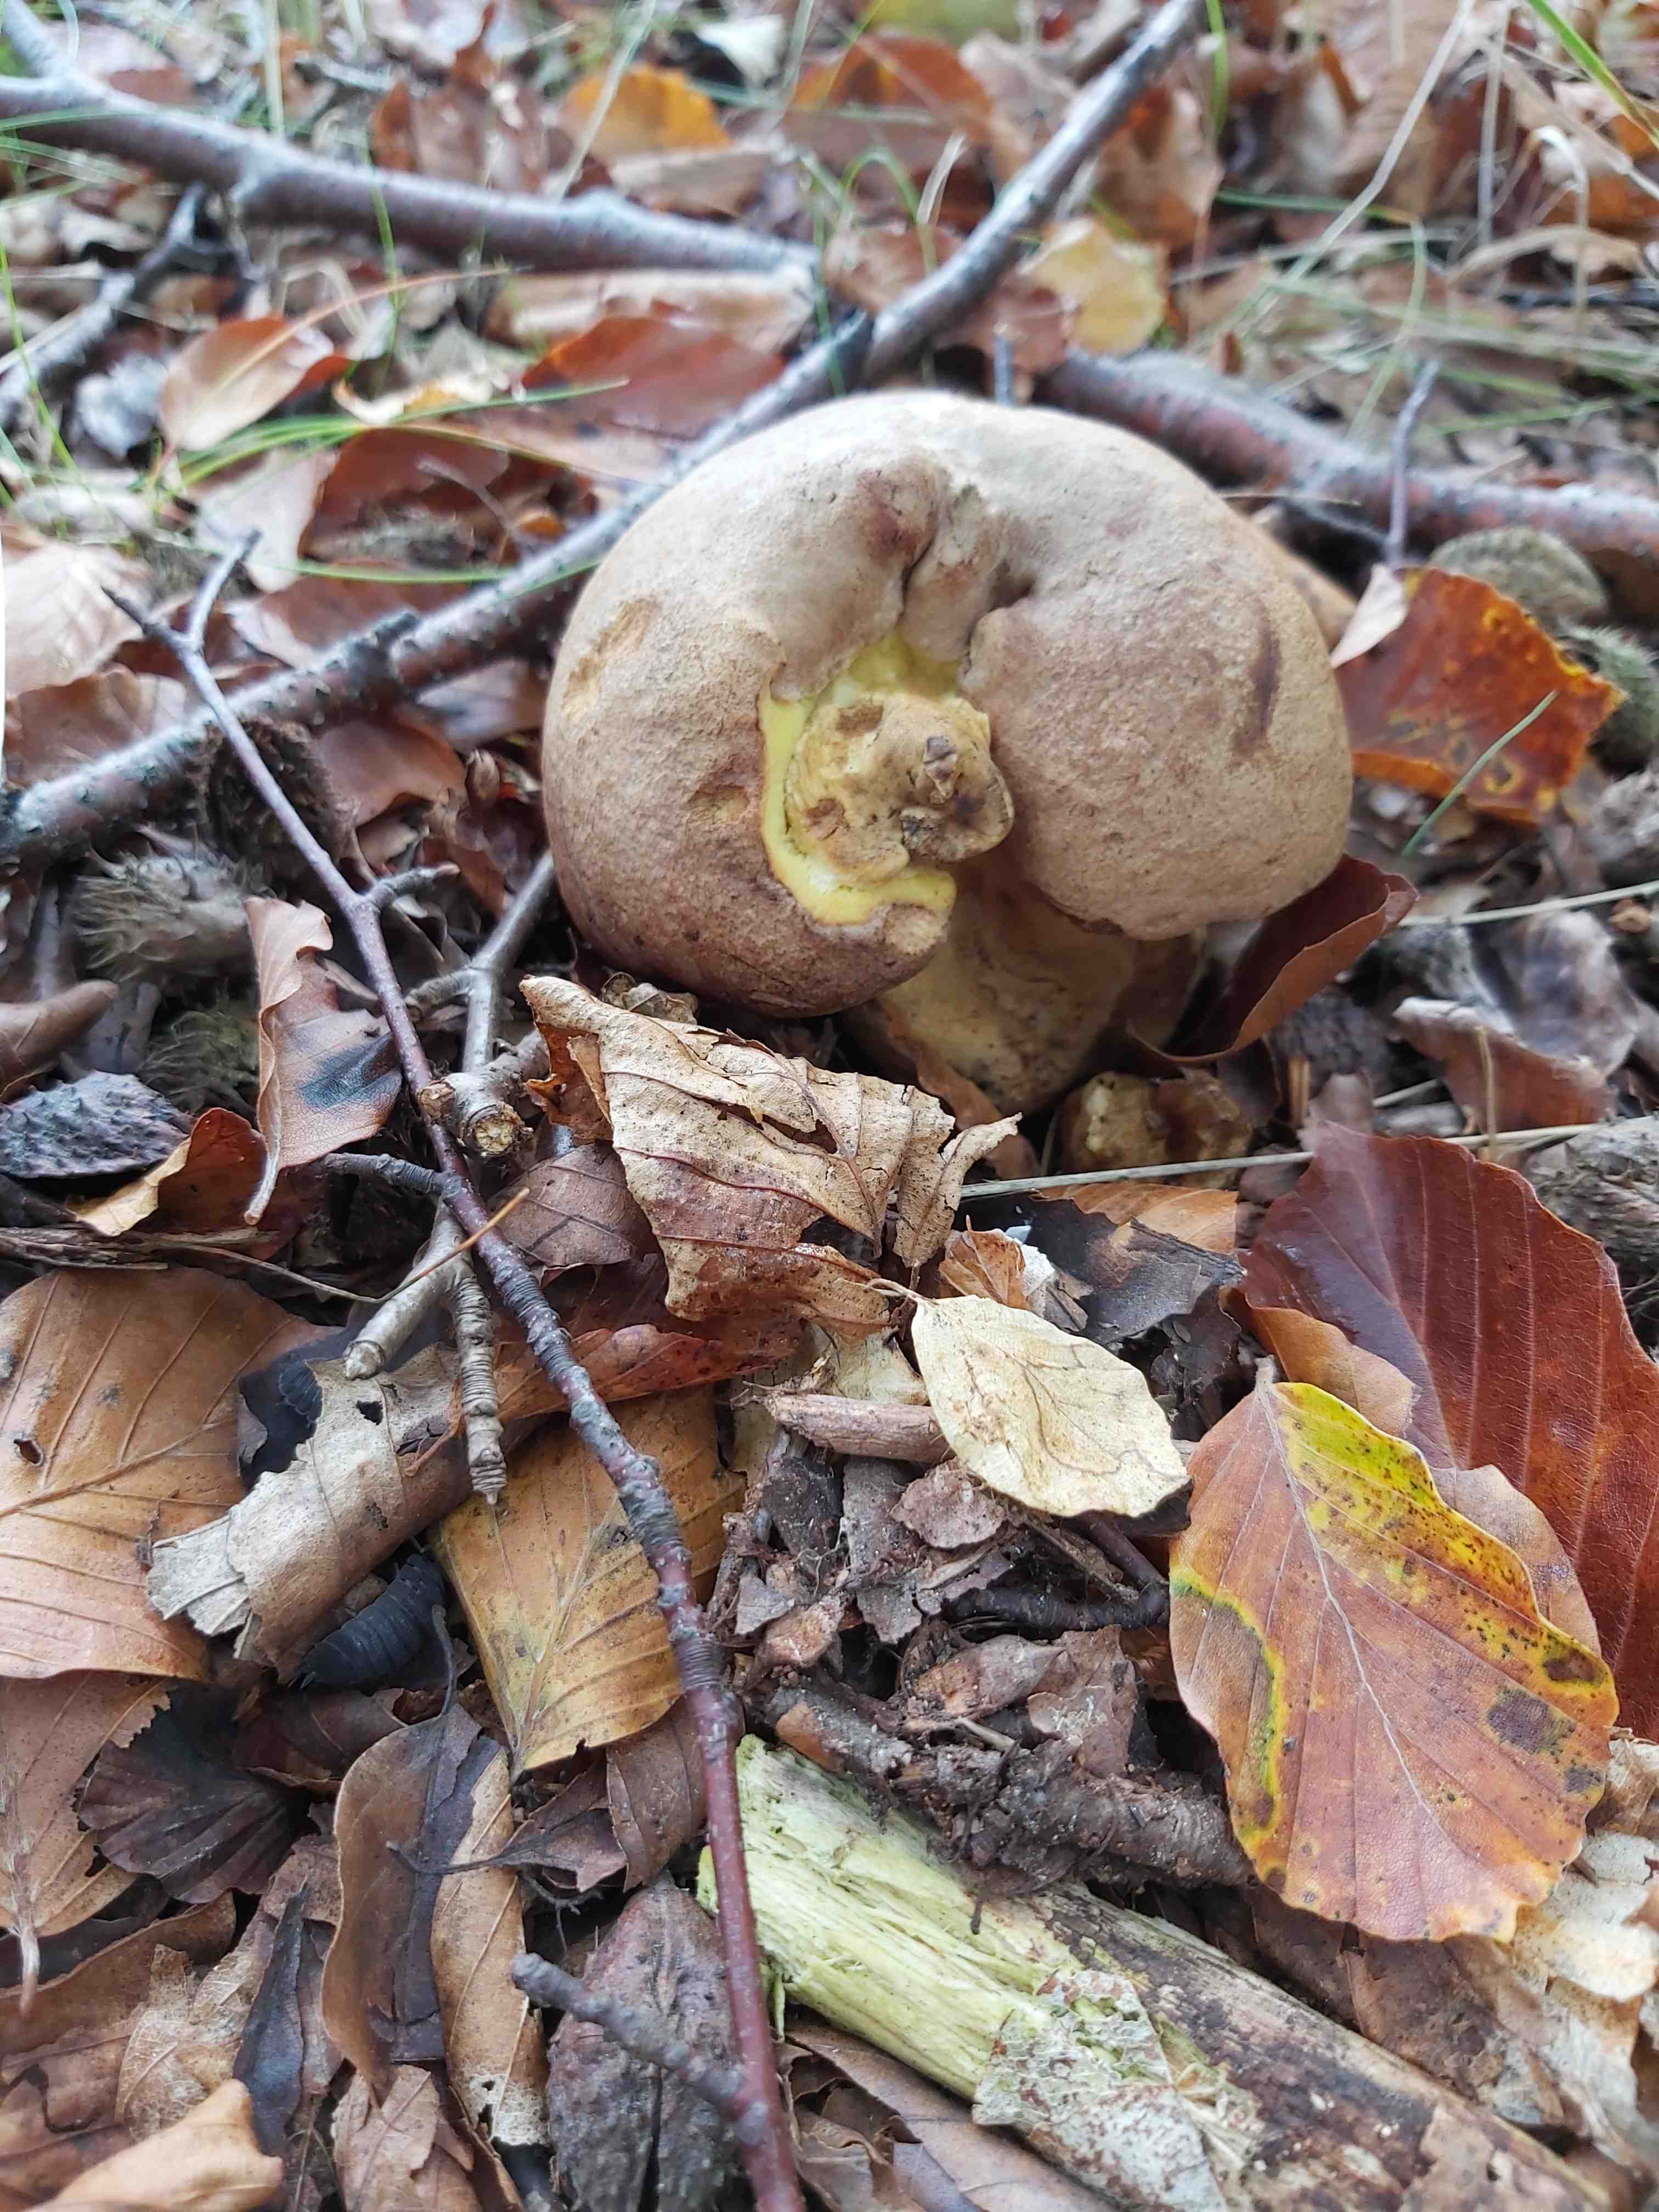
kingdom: Fungi
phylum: Basidiomycota
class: Agaricomycetes
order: Boletales
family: Boletaceae
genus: Butyriboletus
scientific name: Butyriboletus appendiculatus
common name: tenstokket rørhat
